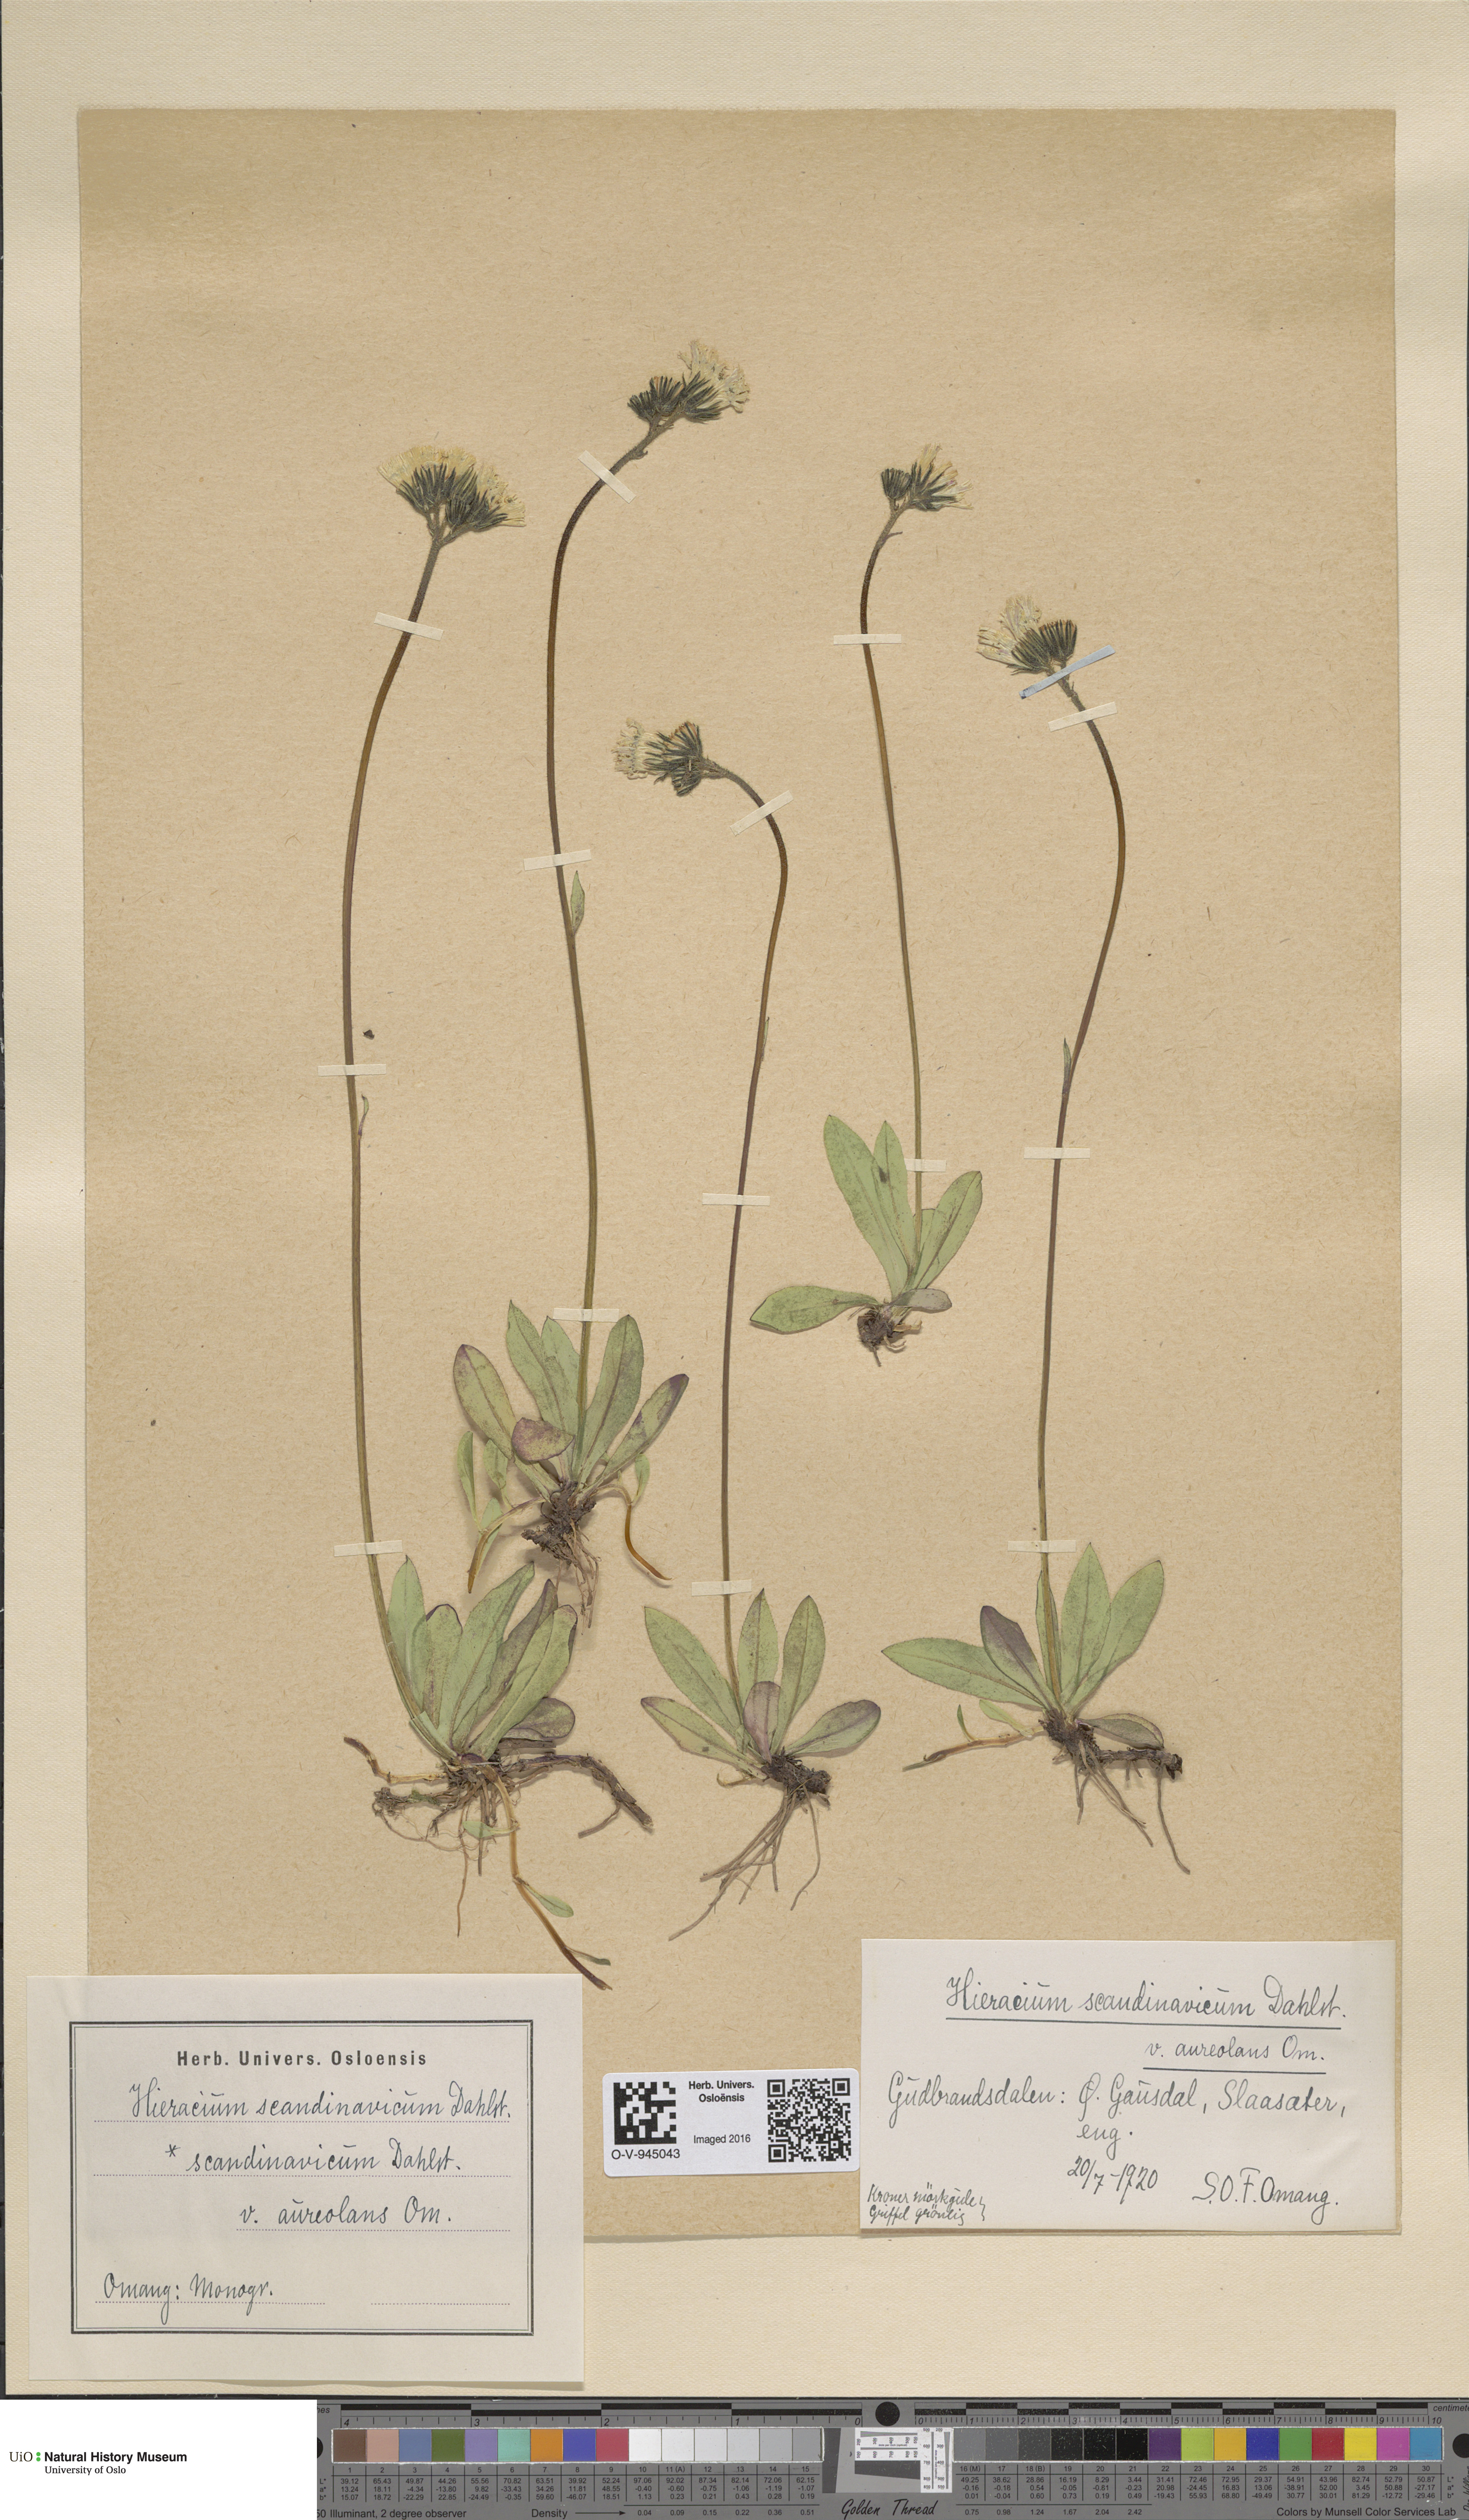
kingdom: Plantae
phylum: Tracheophyta
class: Magnoliopsida
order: Asterales
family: Asteraceae
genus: Pilosella
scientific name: Pilosella scandinavica
